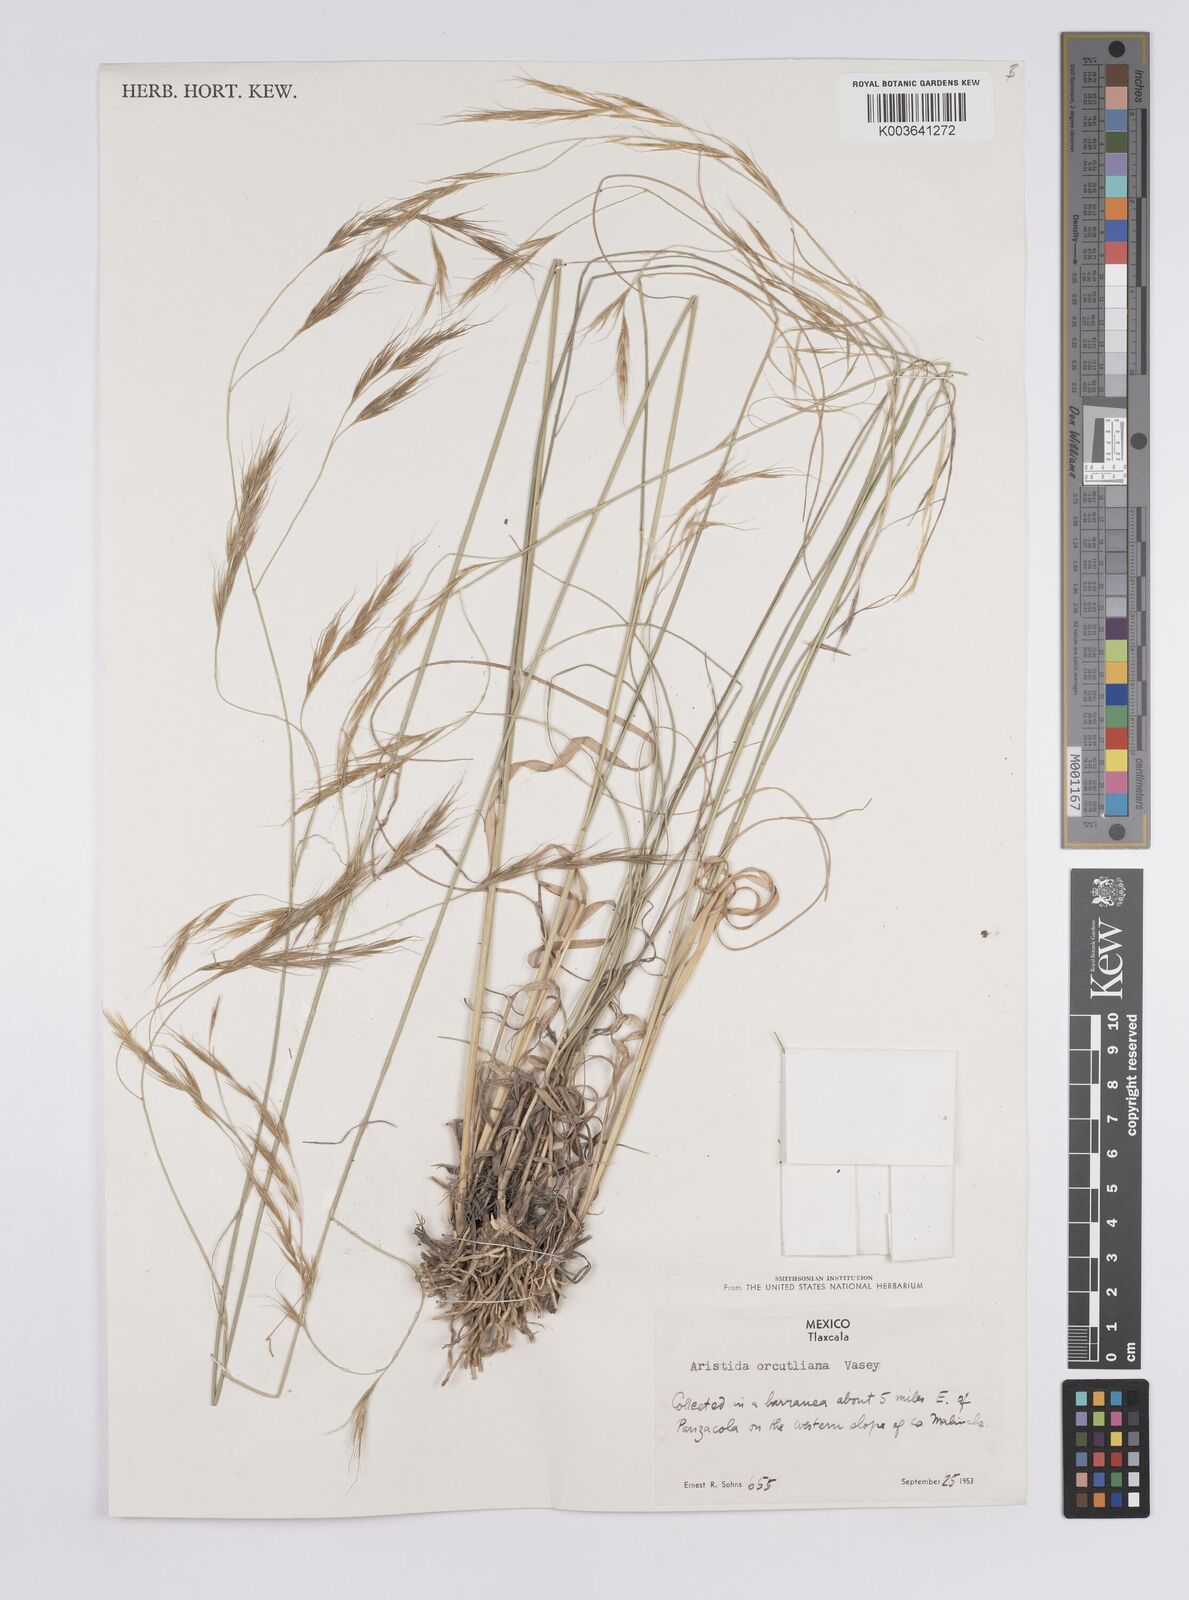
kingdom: Plantae
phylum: Tracheophyta
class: Liliopsida
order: Poales
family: Poaceae
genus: Aristida
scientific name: Aristida schiedeana
